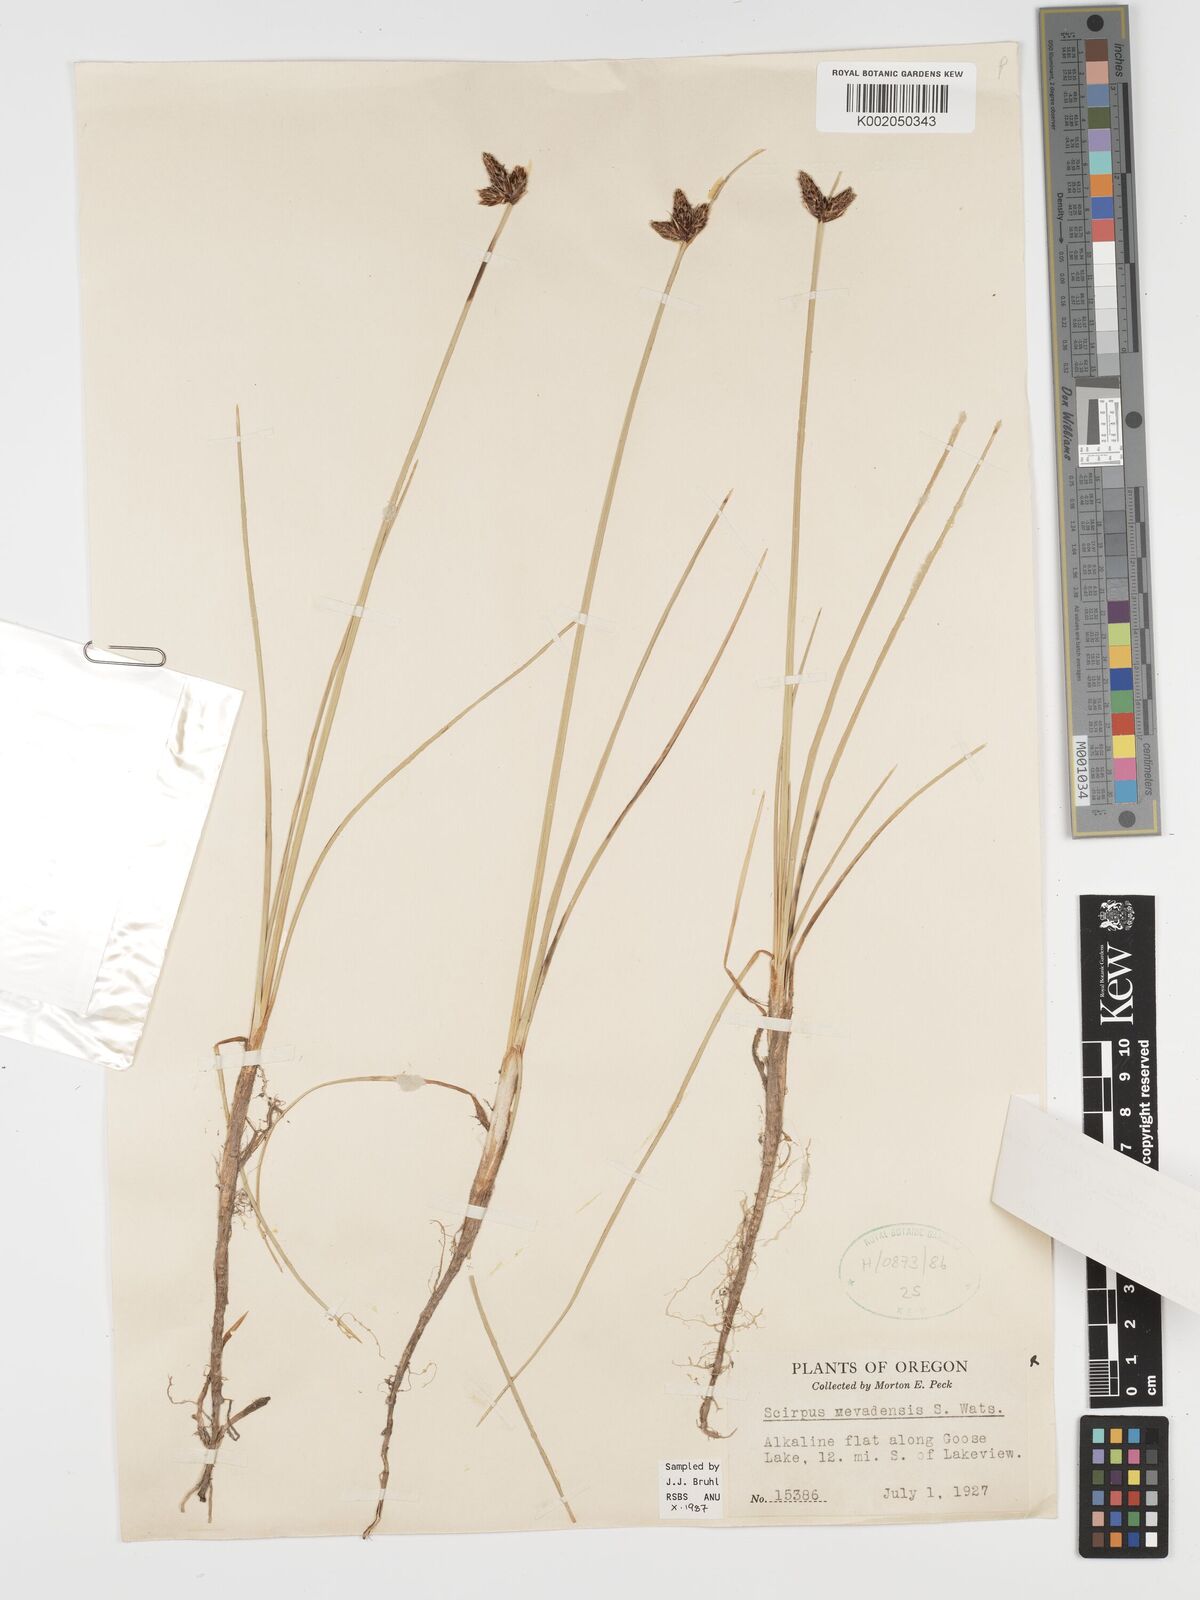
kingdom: Plantae
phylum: Tracheophyta
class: Liliopsida
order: Poales
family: Cyperaceae
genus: Amphiscirpus
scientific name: Amphiscirpus nevadensis
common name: Nevada bulrush
